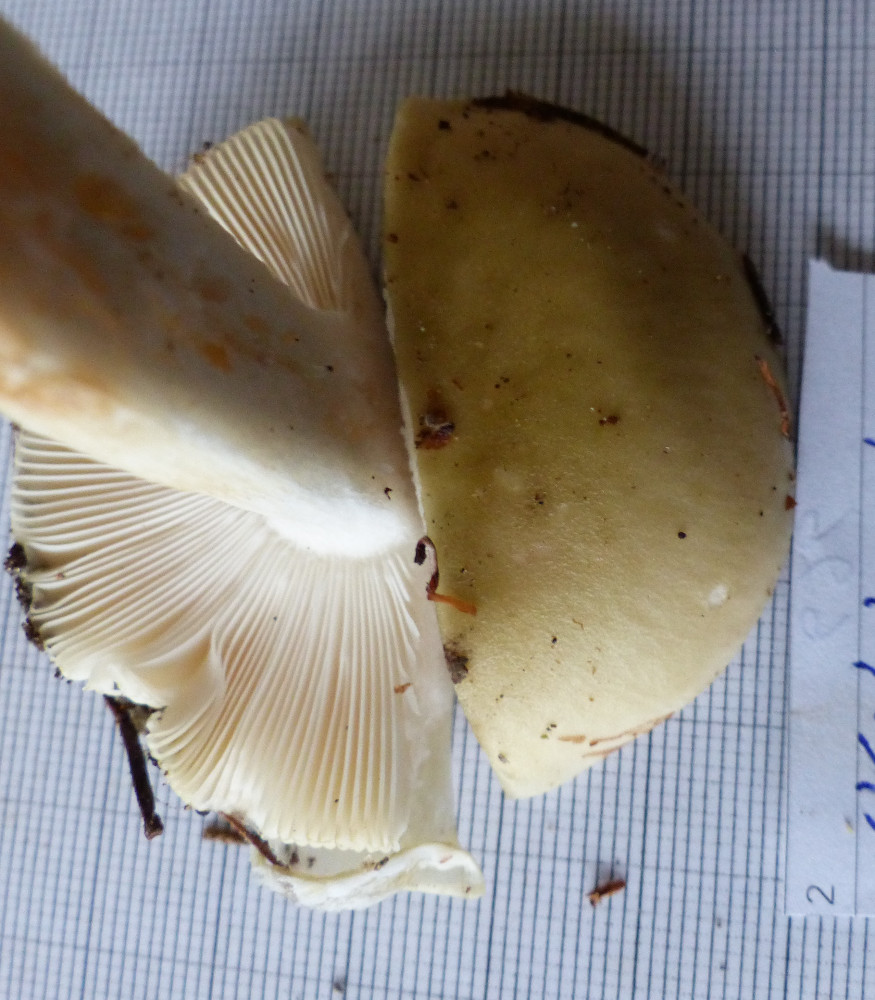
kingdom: Fungi
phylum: Basidiomycota
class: Agaricomycetes
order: Russulales
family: Russulaceae
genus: Russula
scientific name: Russula aeruginea
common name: græsgrøn skørhat
